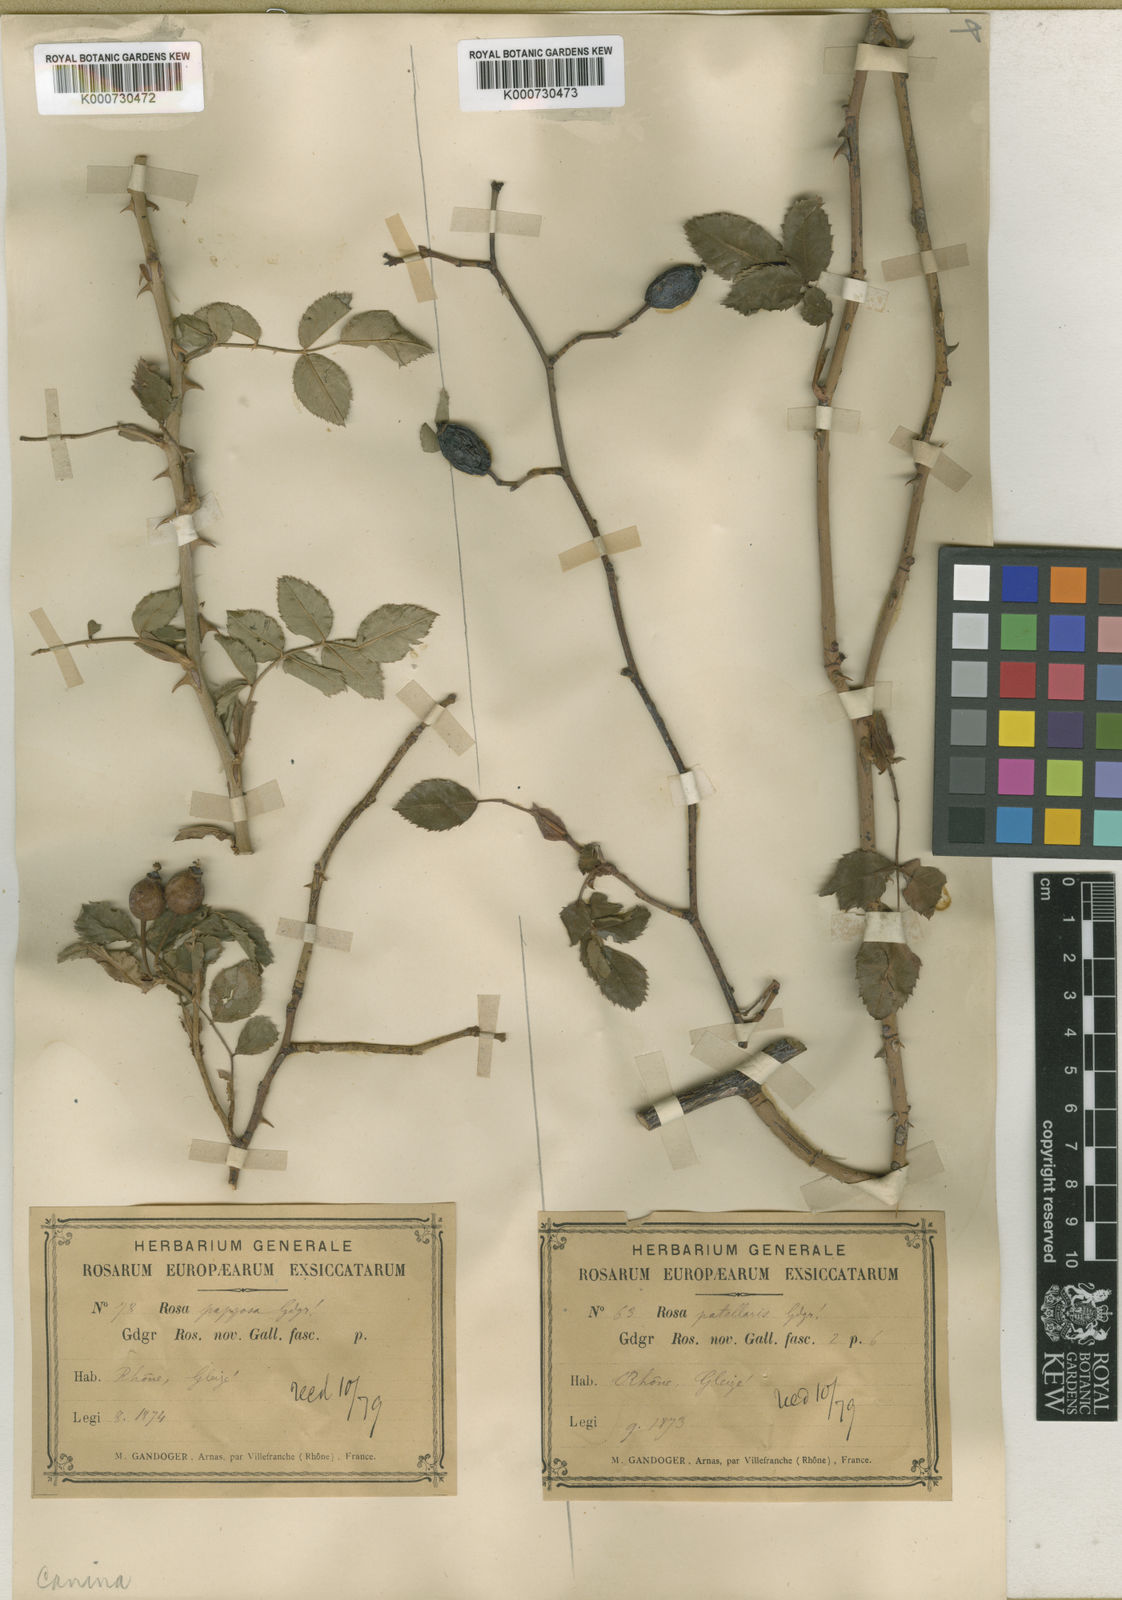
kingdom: Plantae
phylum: Tracheophyta
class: Magnoliopsida
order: Rosales
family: Rosaceae
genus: Rosa
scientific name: Rosa canina
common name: Dog rose
